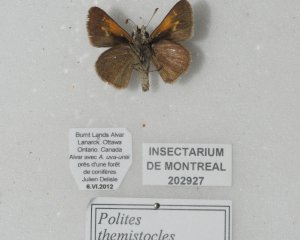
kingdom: Animalia
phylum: Arthropoda
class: Insecta
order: Lepidoptera
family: Hesperiidae
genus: Polites
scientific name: Polites themistocles
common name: Tawny-edged Skipper
